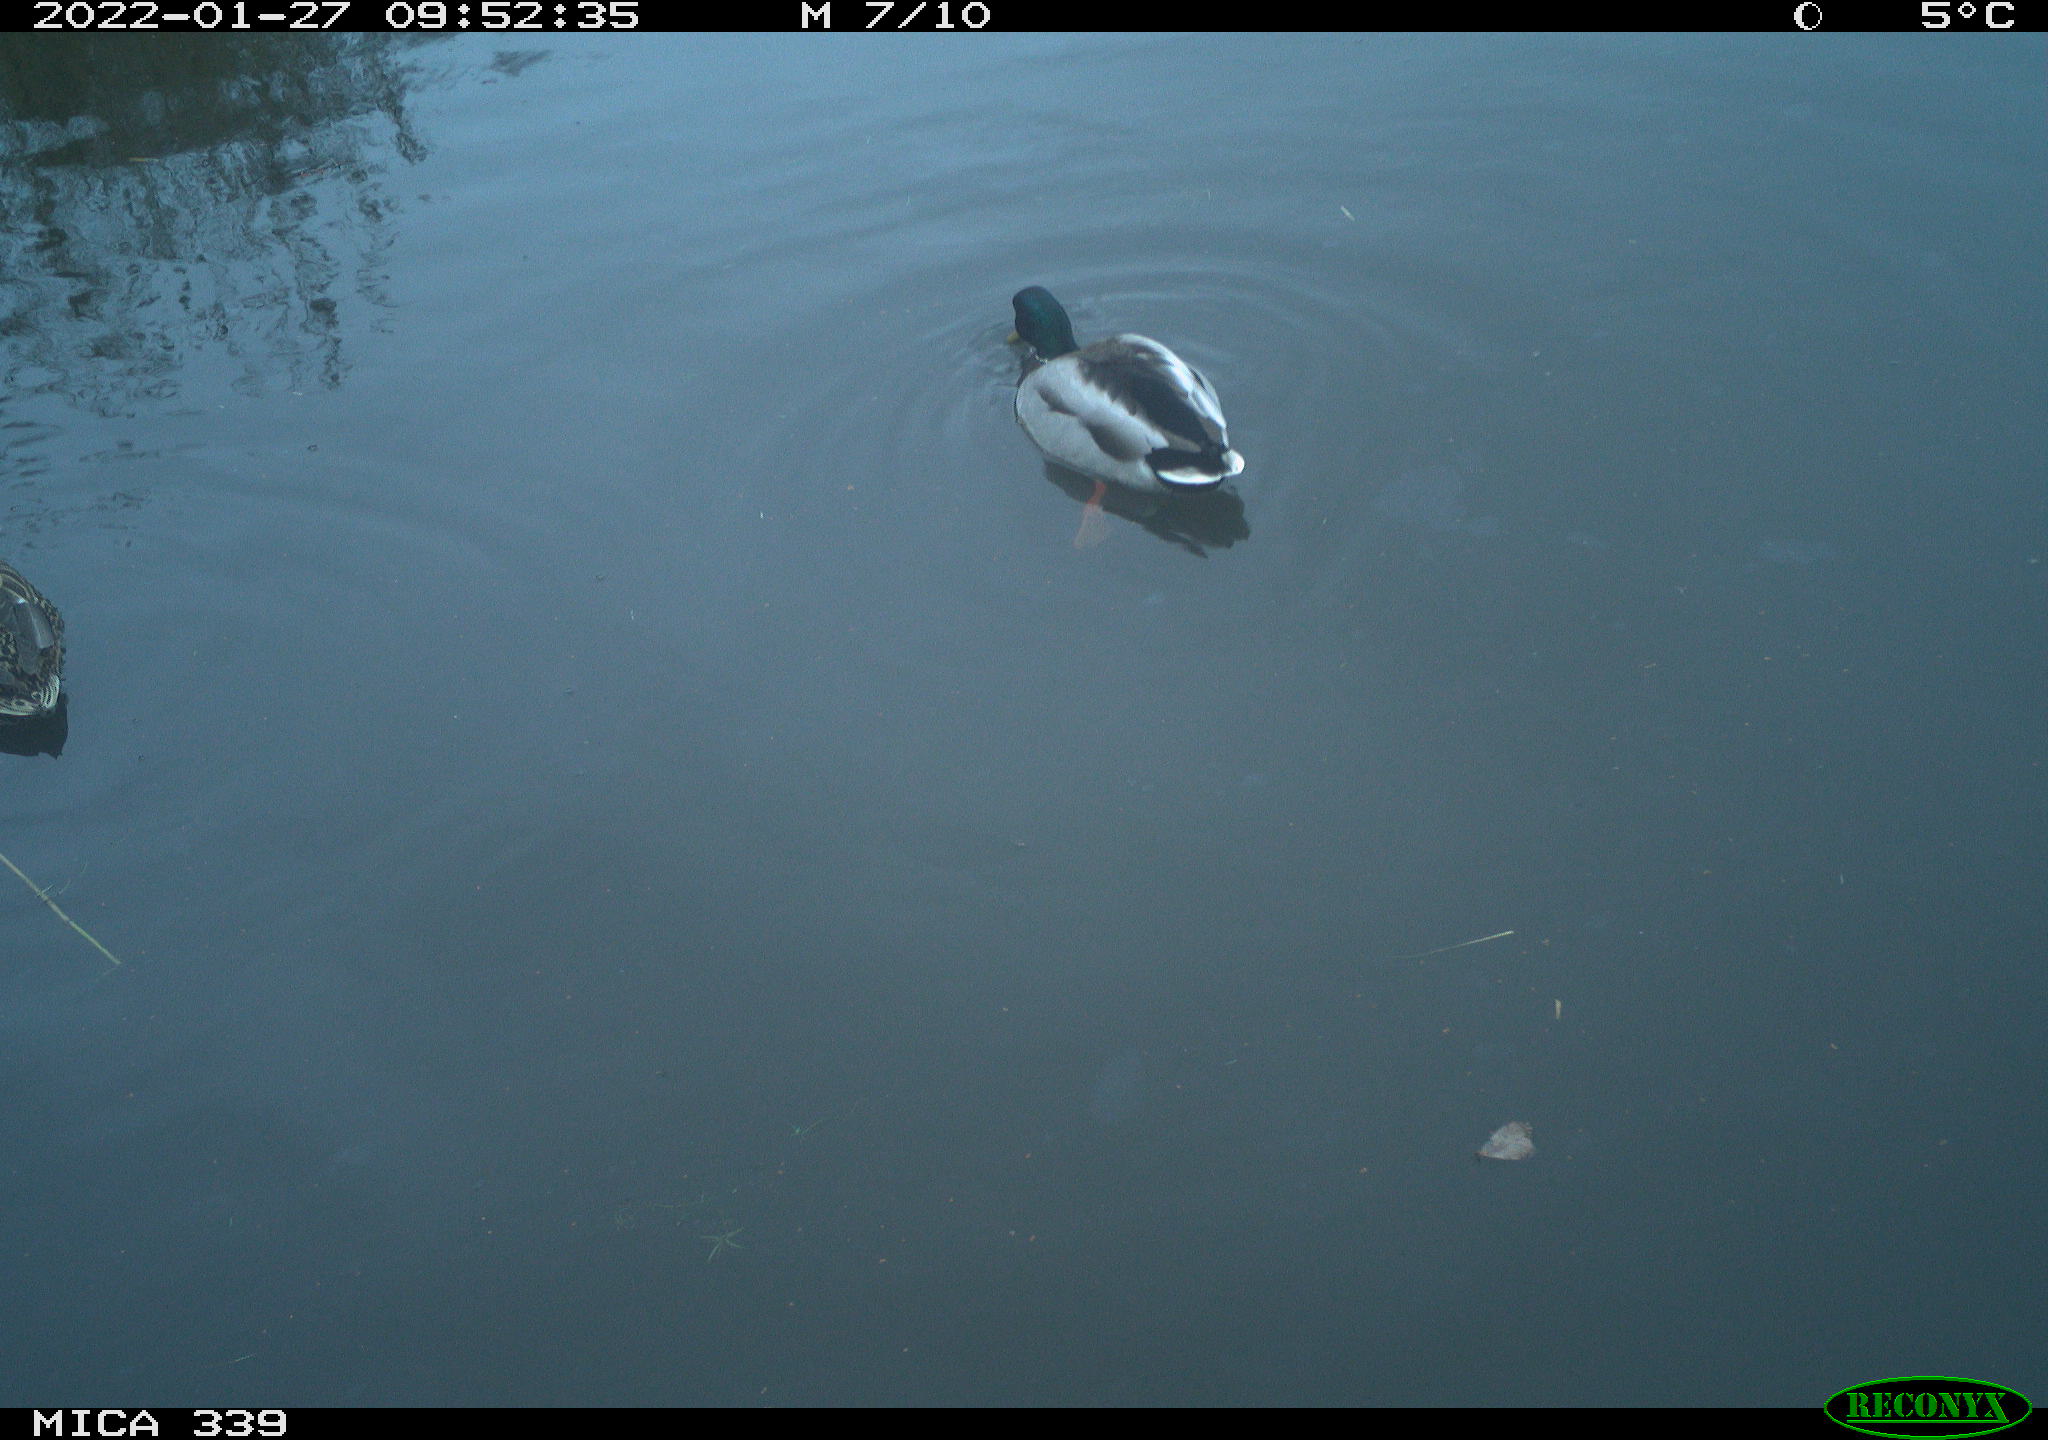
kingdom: Animalia
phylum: Chordata
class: Aves
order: Anseriformes
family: Anatidae
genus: Anas
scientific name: Anas platyrhynchos
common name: Mallard
